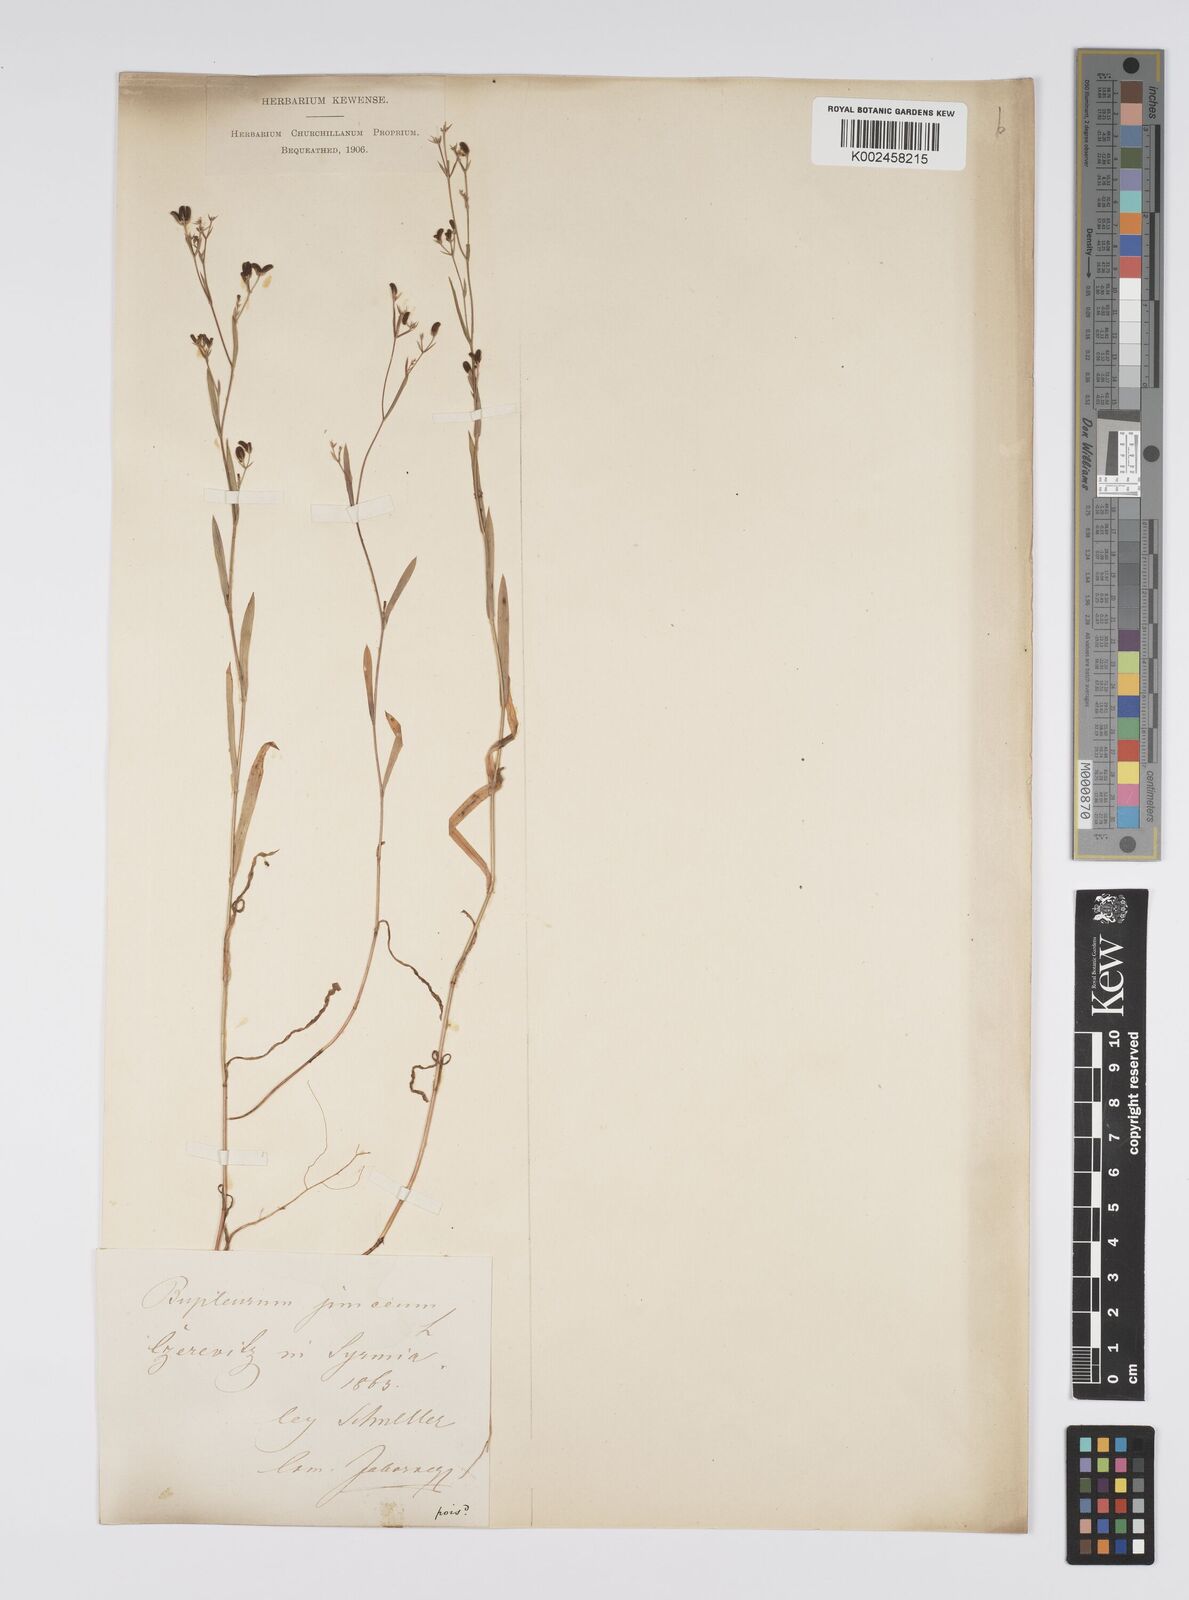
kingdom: Plantae
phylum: Tracheophyta
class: Magnoliopsida
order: Apiales
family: Apiaceae
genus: Bupleurum
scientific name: Bupleurum praealtum
